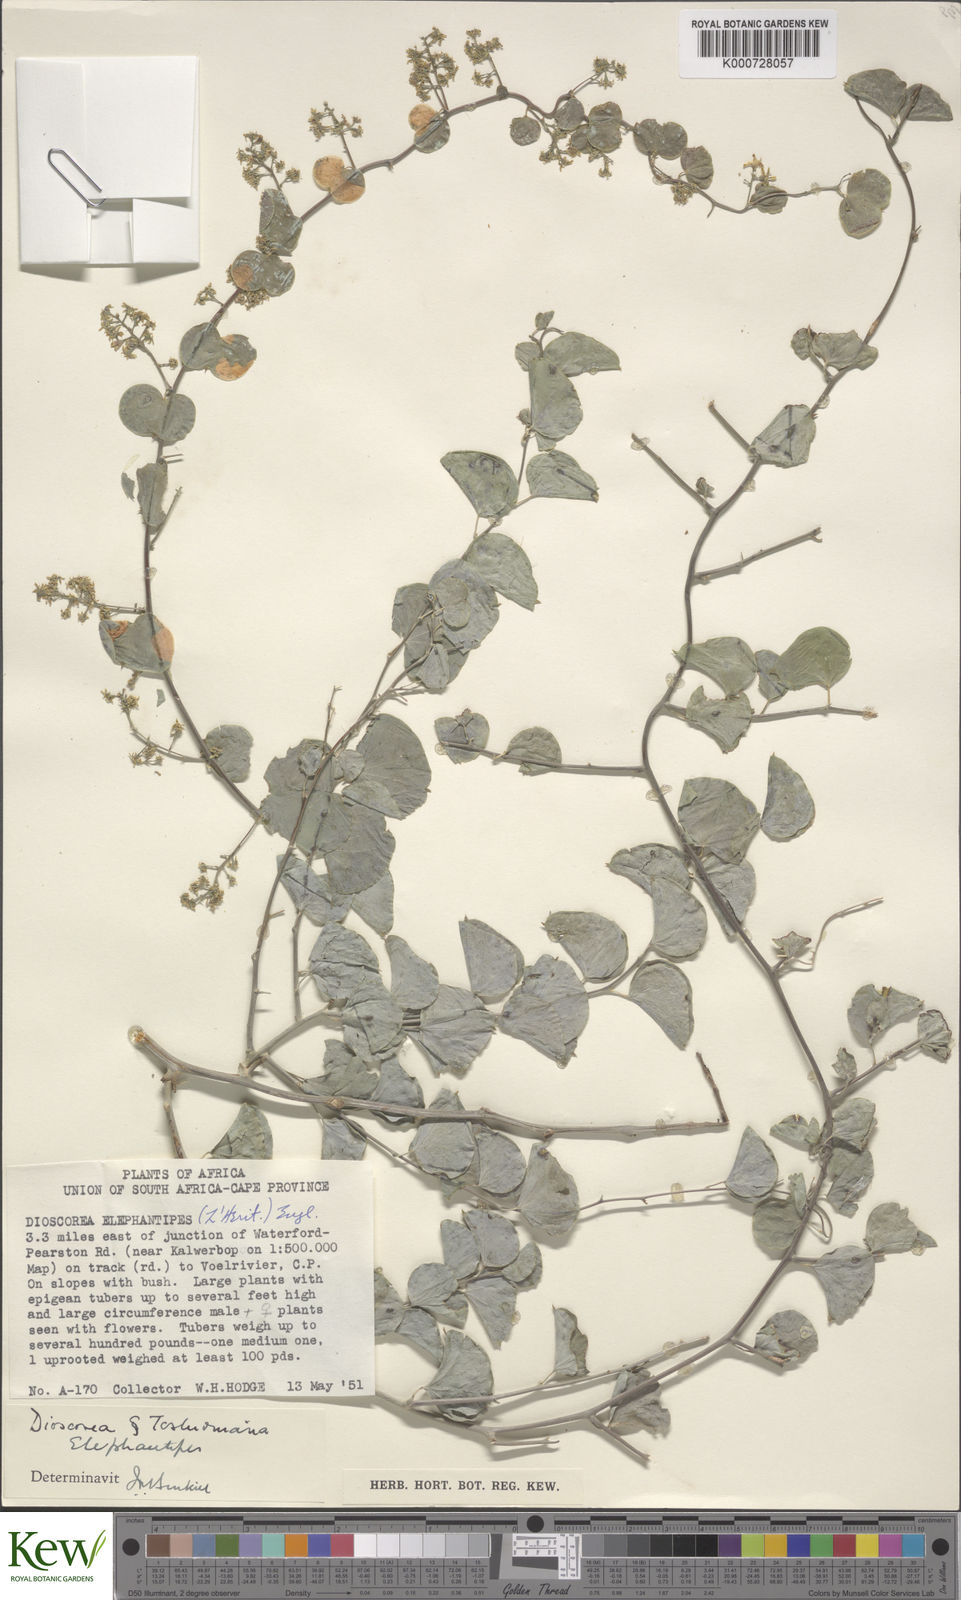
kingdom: Plantae
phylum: Tracheophyta
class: Liliopsida
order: Dioscoreales
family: Dioscoreaceae
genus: Dioscorea
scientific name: Dioscorea
